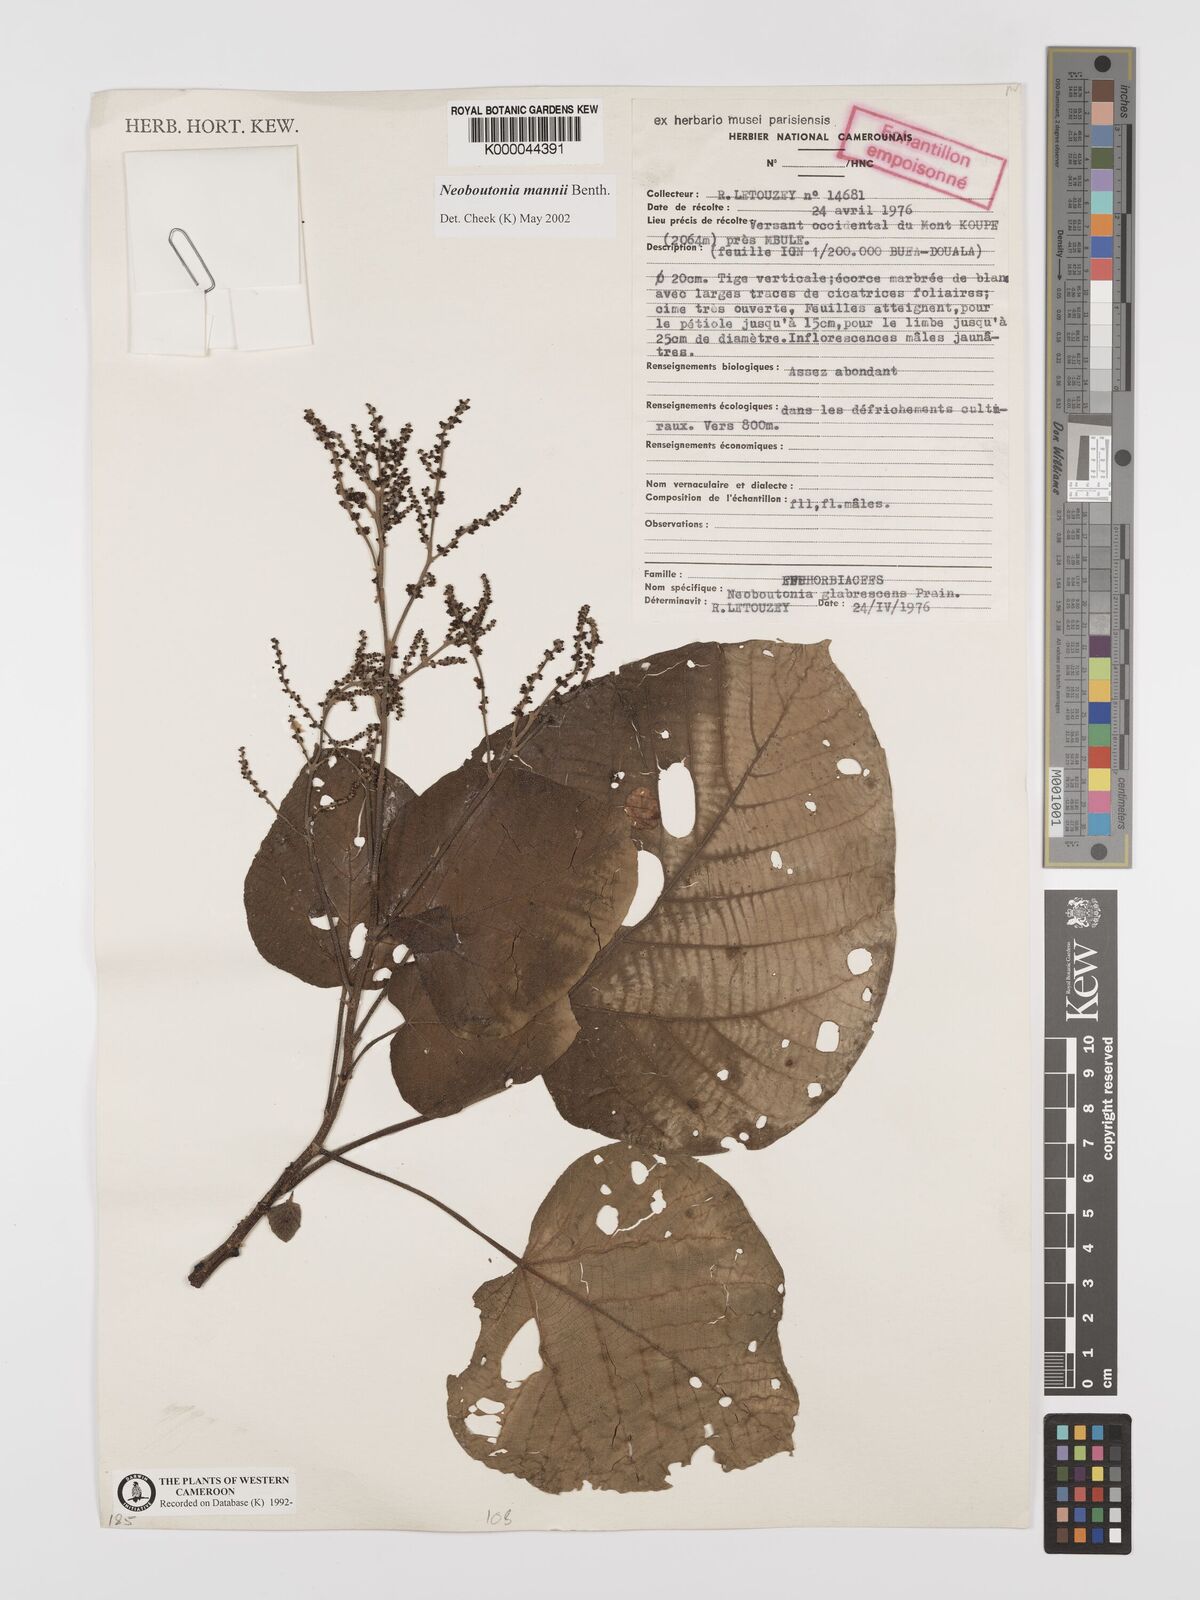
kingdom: Plantae
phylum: Tracheophyta
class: Magnoliopsida
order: Malpighiales
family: Euphorbiaceae
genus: Neoboutonia
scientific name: Neoboutonia mannii
